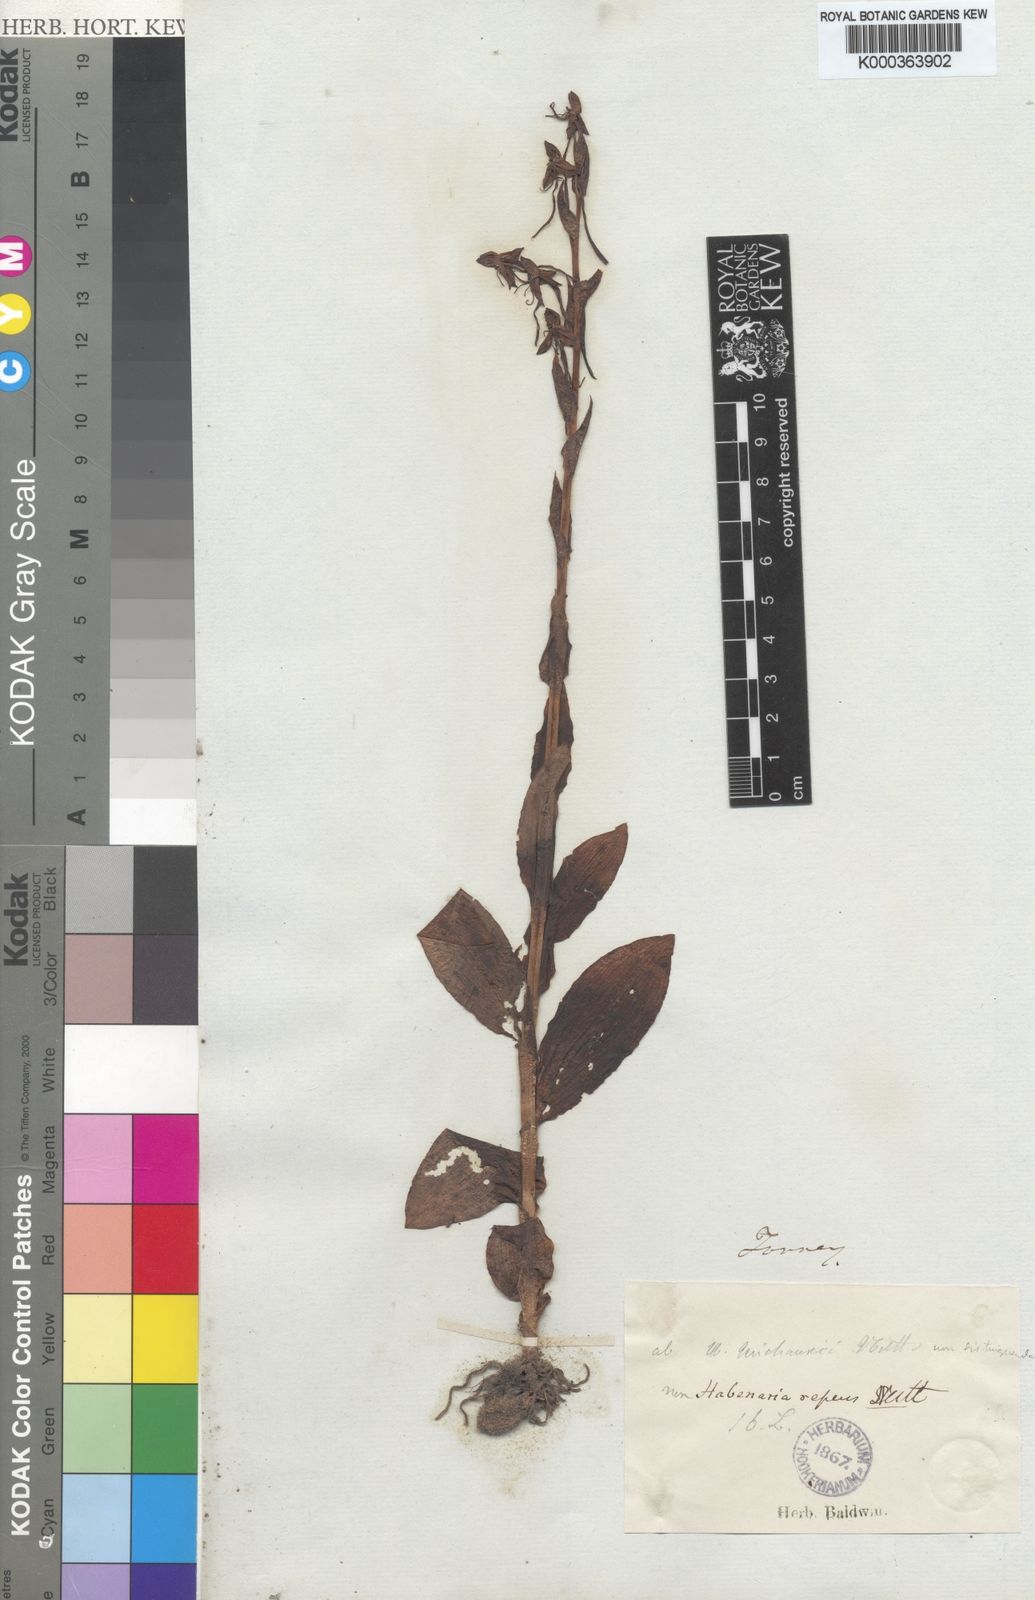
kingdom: Plantae
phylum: Tracheophyta
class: Liliopsida
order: Asparagales
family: Orchidaceae
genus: Habenaria
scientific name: Habenaria
